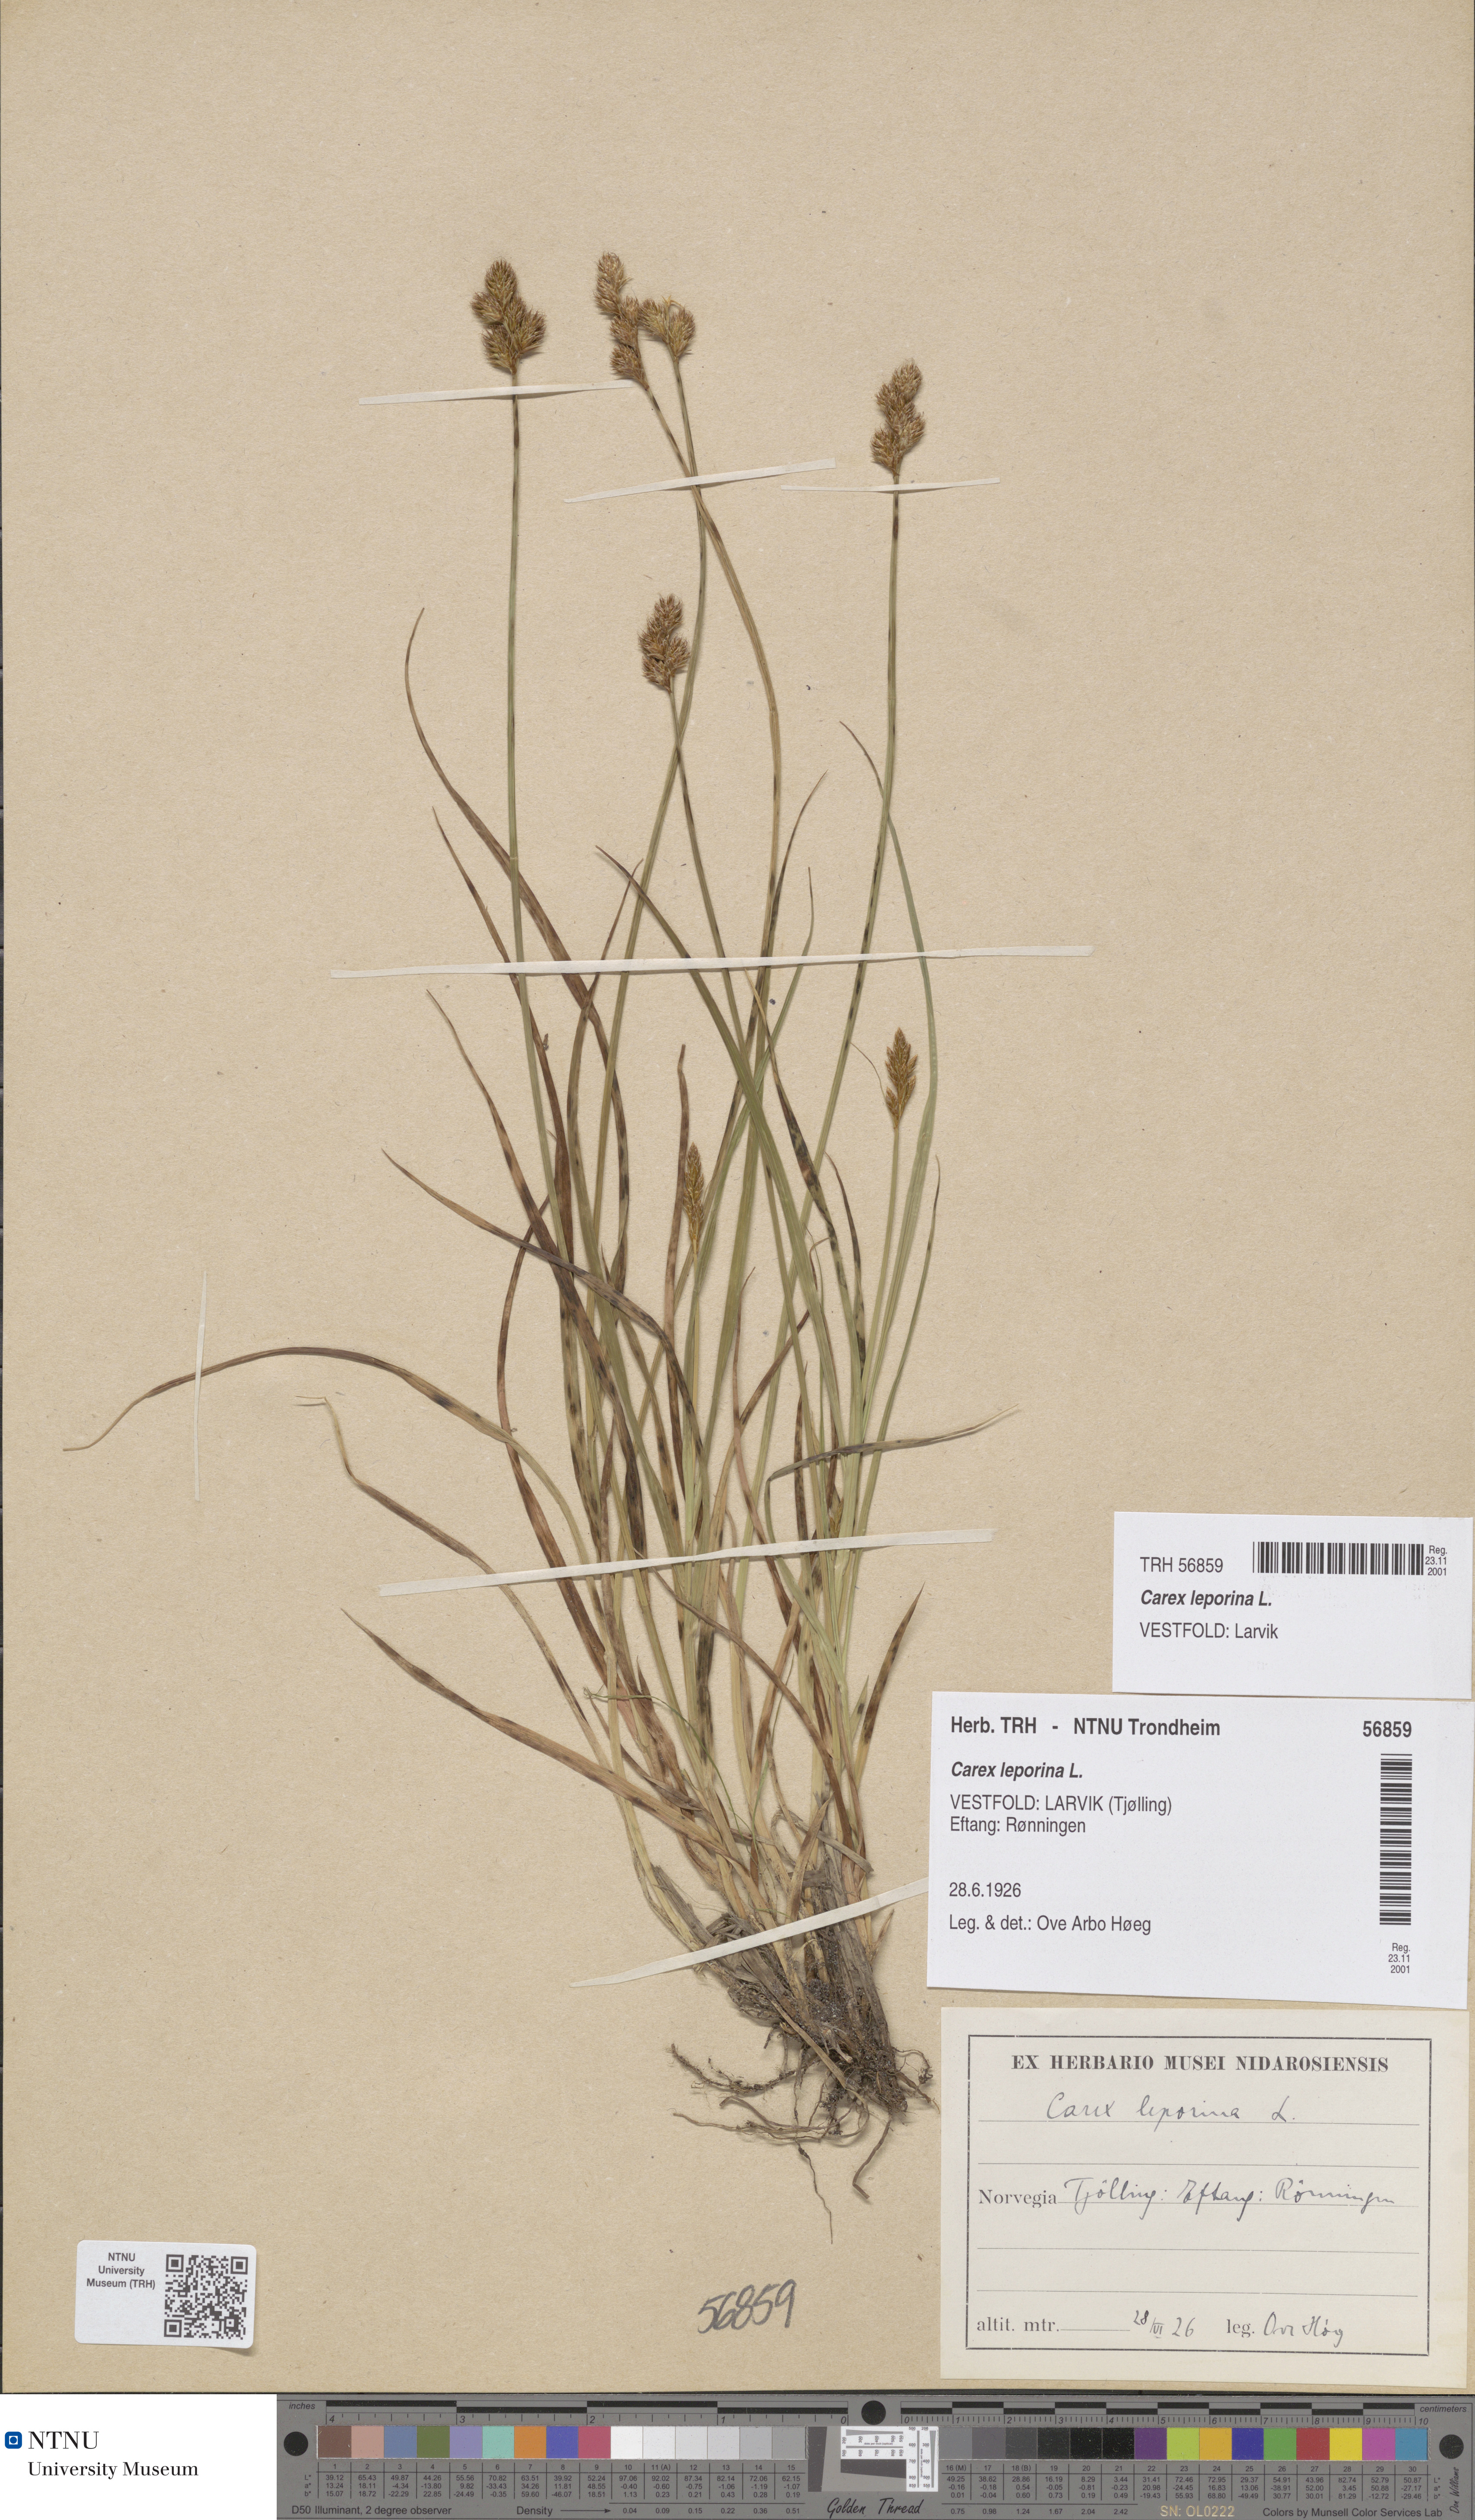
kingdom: Plantae
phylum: Tracheophyta
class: Liliopsida
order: Poales
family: Cyperaceae
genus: Carex
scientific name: Carex leporina
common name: Oval sedge
